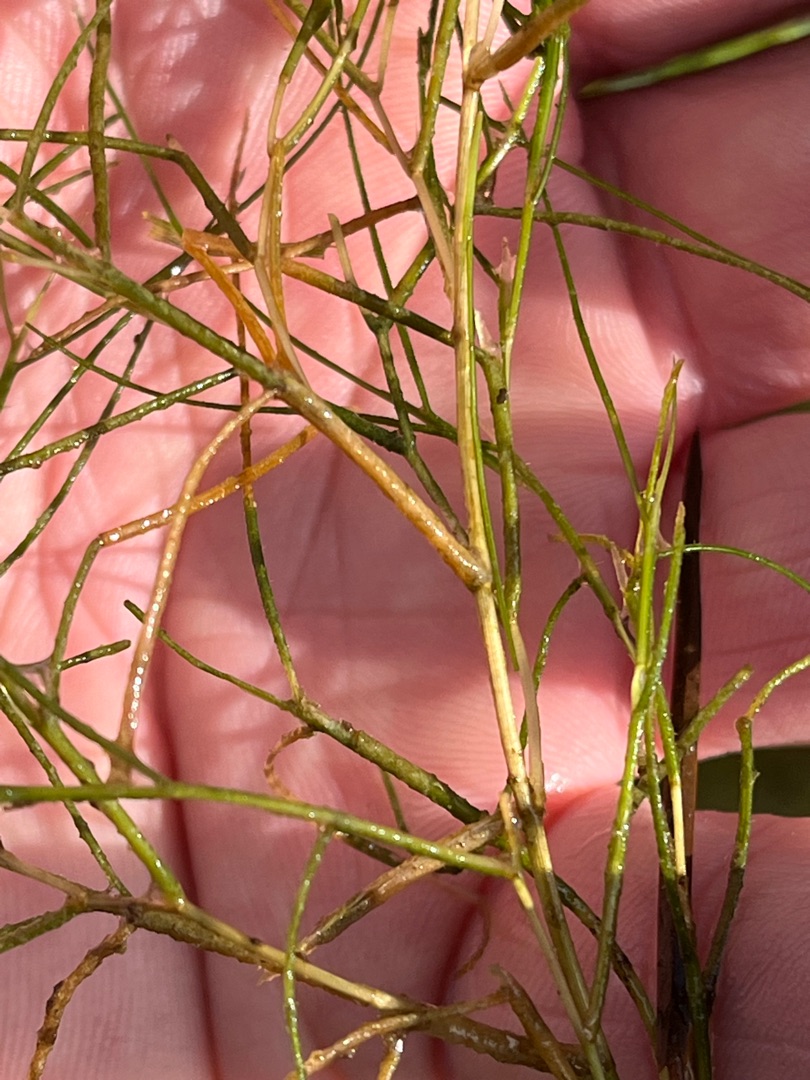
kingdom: Plantae
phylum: Tracheophyta
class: Liliopsida
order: Alismatales
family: Potamogetonaceae
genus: Stuckenia
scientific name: Stuckenia pectinata
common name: Børstebladet vandaks
